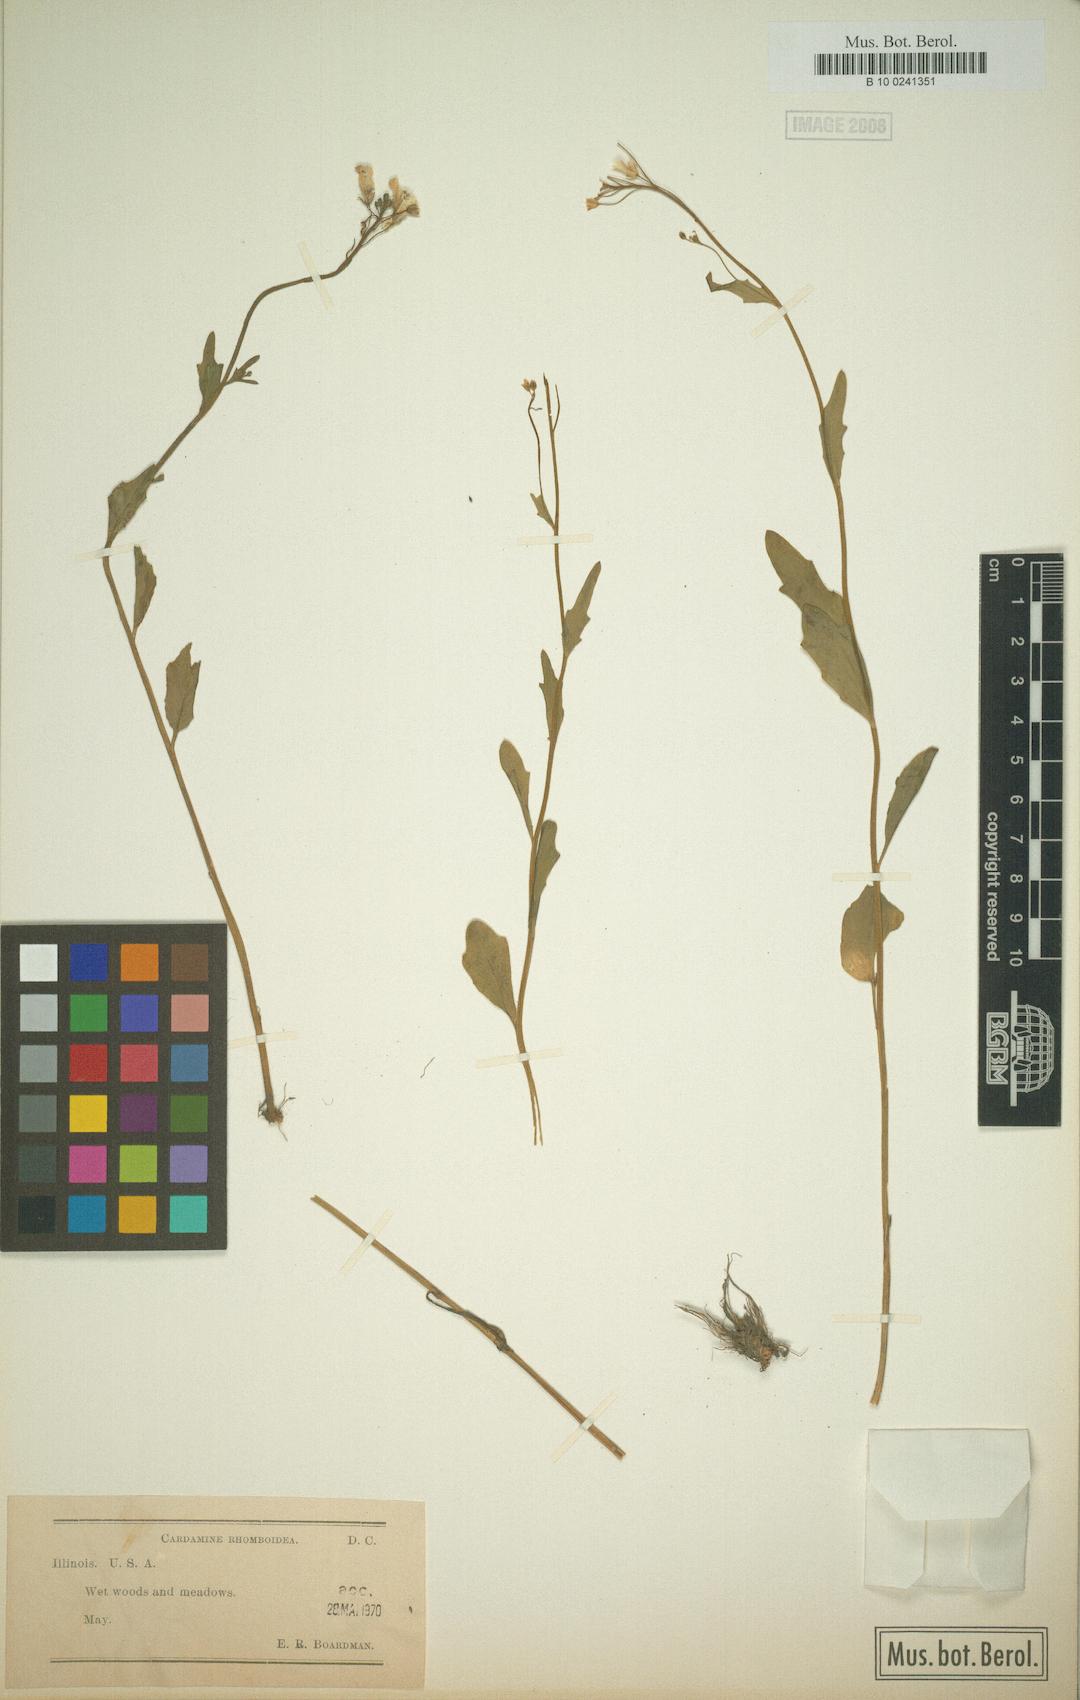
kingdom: Plantae
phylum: Tracheophyta
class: Magnoliopsida
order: Brassicales
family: Brassicaceae
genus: Cardamine
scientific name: Cardamine bulbosa
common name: Spring cress
